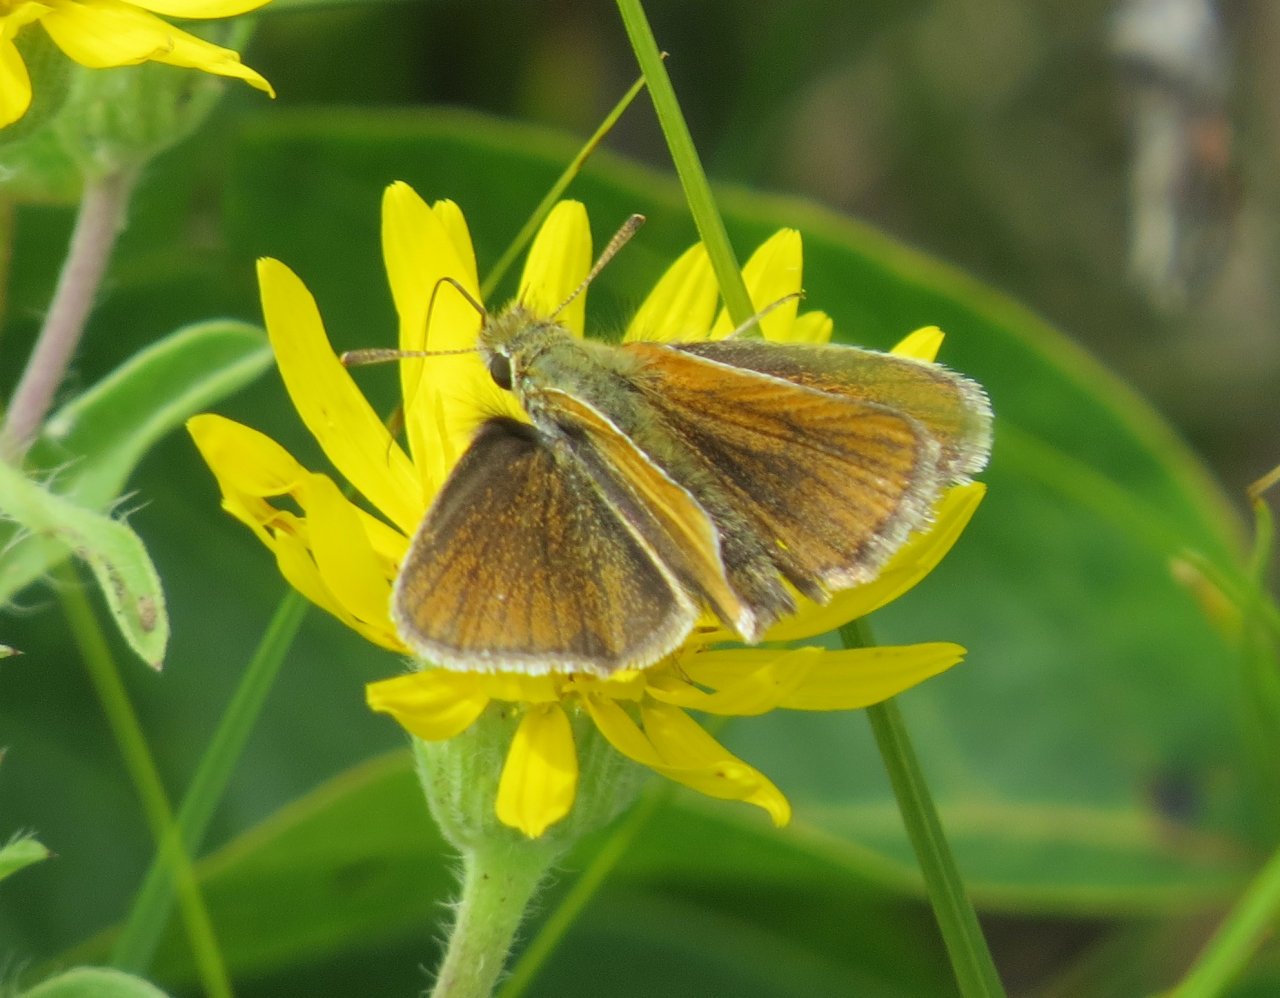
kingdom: Animalia
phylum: Arthropoda
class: Insecta
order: Lepidoptera
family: Hesperiidae
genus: Oarisma
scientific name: Oarisma garita
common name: Garita Skipperling
